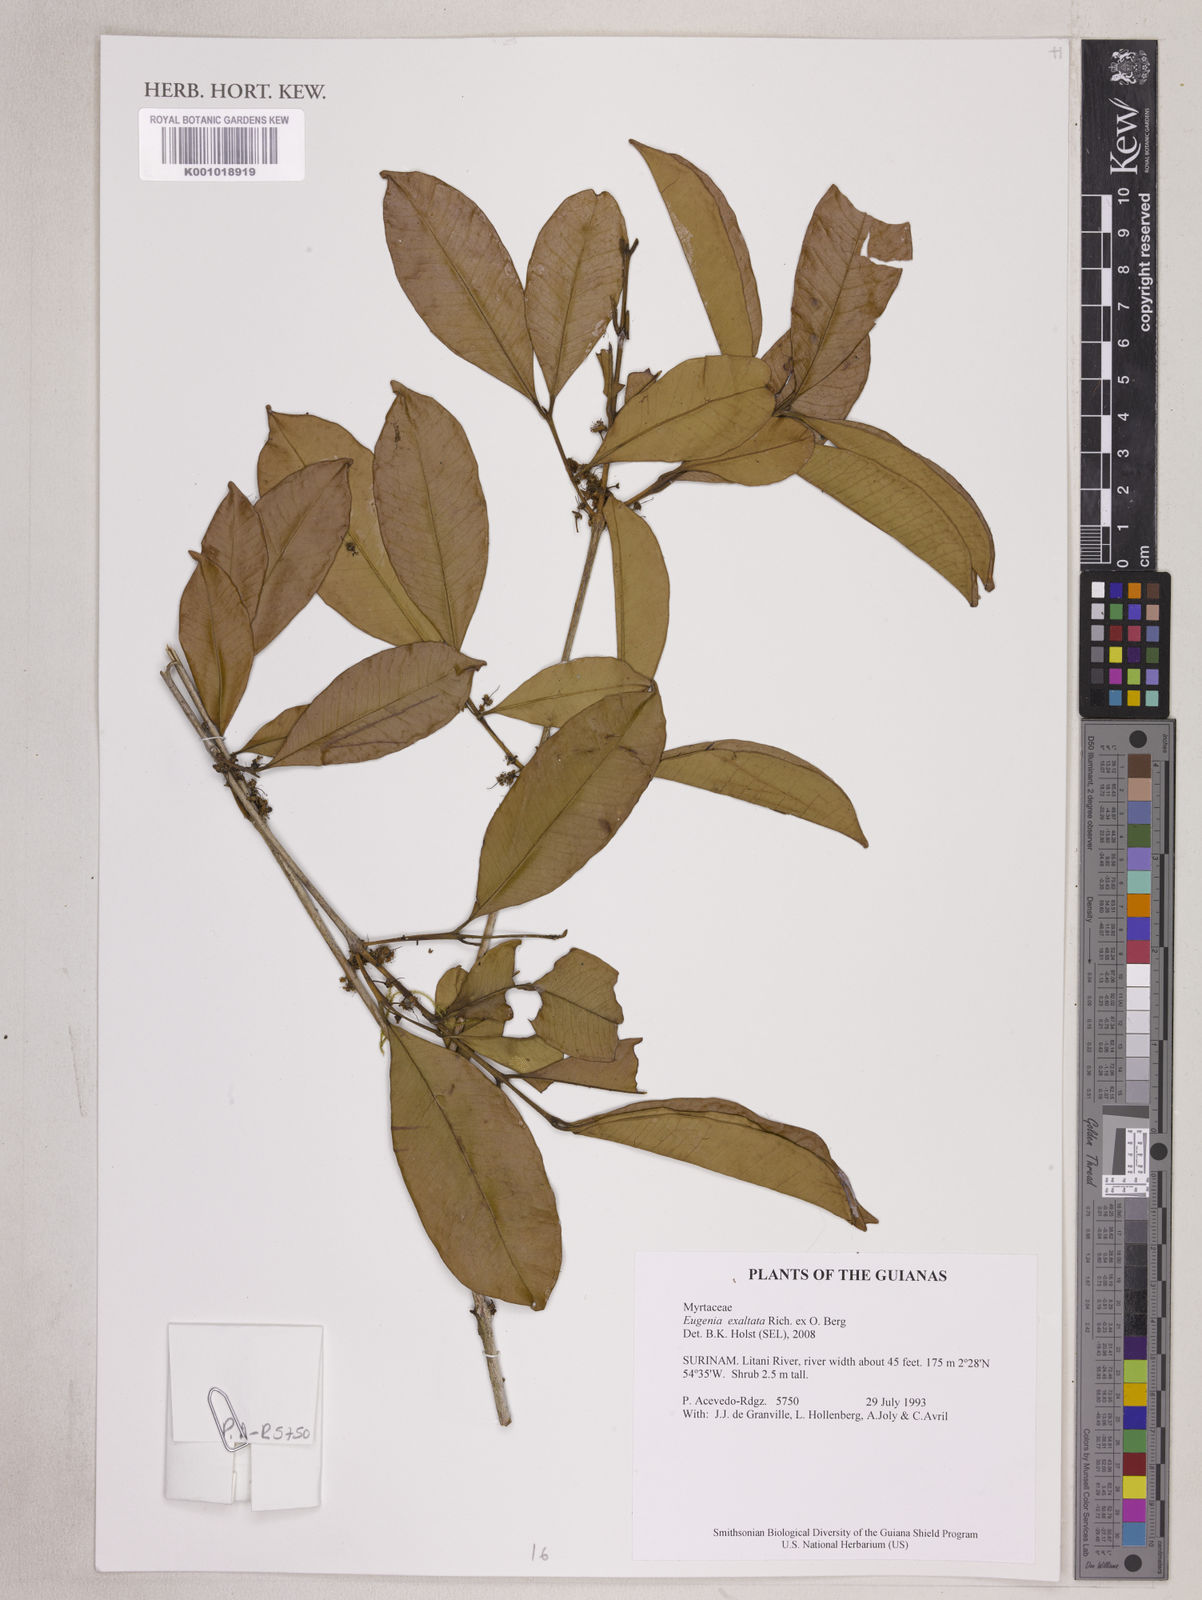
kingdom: Plantae
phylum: Tracheophyta
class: Magnoliopsida
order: Myrtales
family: Myrtaceae
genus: Eugenia
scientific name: Eugenia exaltata
